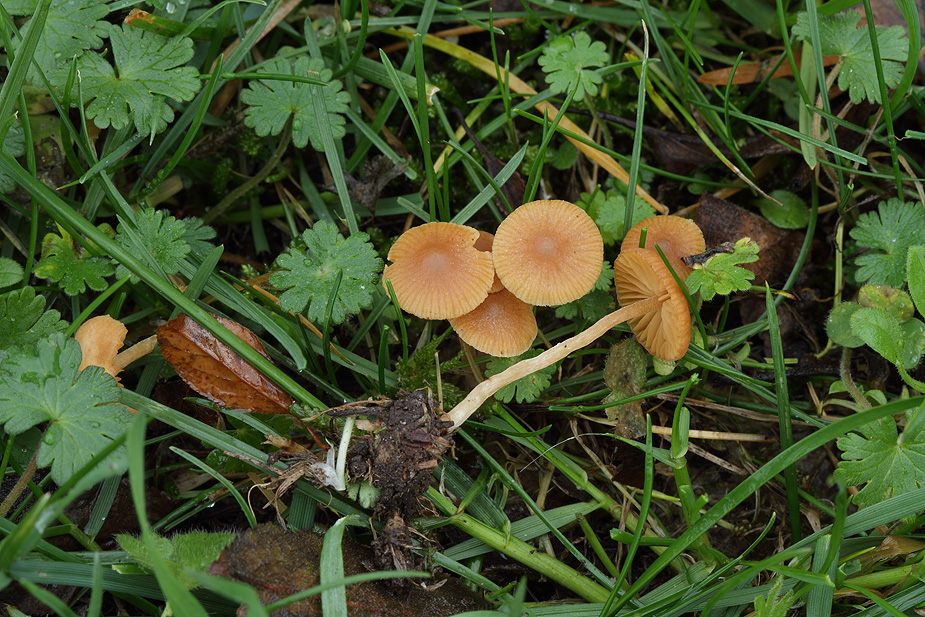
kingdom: Fungi
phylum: Basidiomycota
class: Agaricomycetes
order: Agaricales
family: Hymenogastraceae
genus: Galerina
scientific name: Galerina graminea
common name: plæne-hjelmhat
